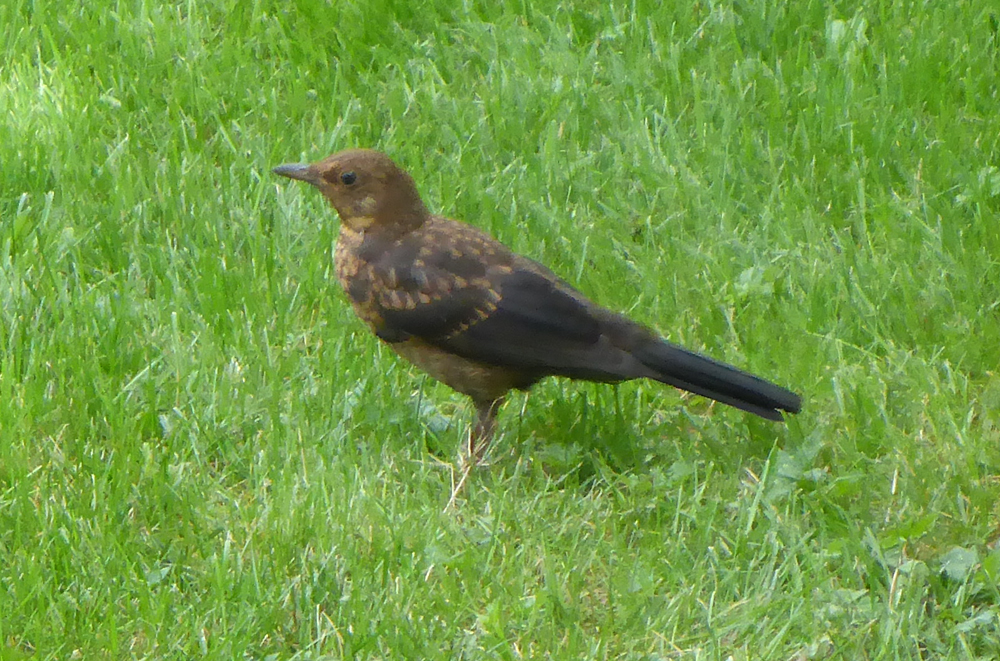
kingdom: Animalia
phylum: Chordata
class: Aves
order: Passeriformes
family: Turdidae
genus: Turdus
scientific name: Turdus merula
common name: Common blackbird
